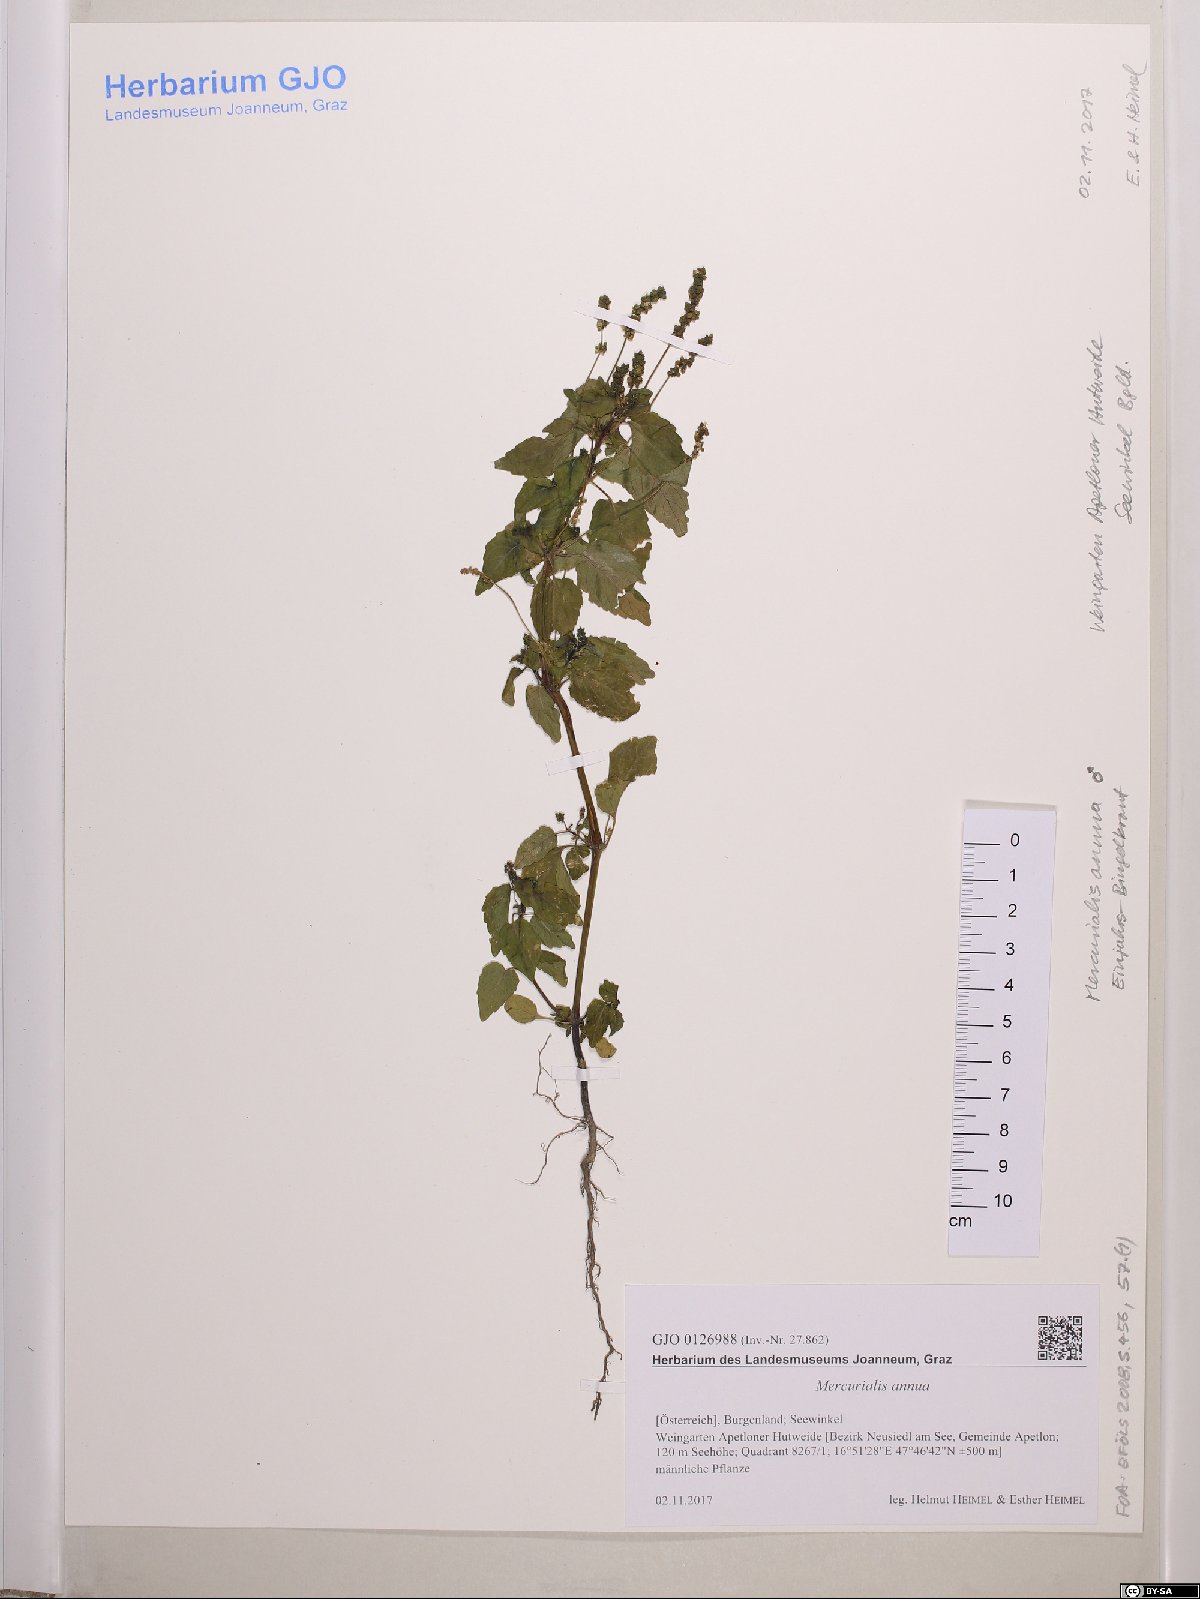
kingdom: Plantae
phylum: Tracheophyta
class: Magnoliopsida
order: Malpighiales
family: Euphorbiaceae
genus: Mercurialis
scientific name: Mercurialis annua
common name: Annual mercury
